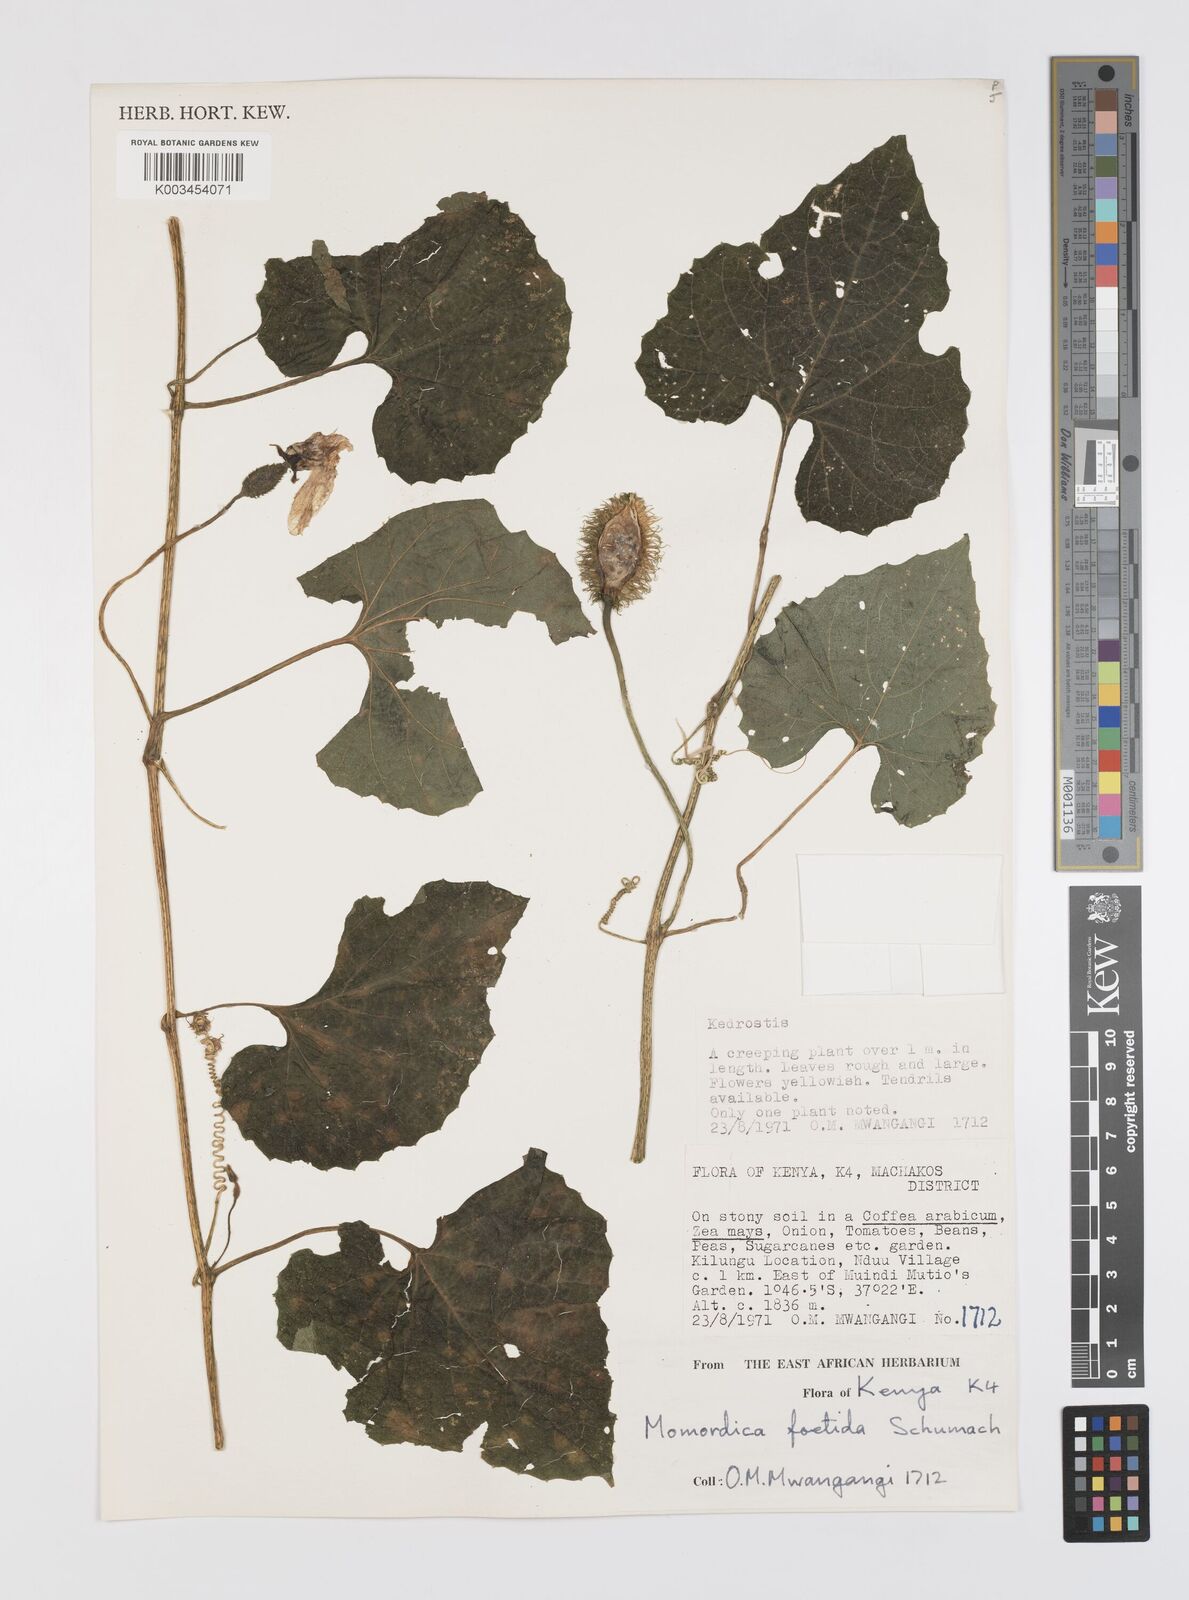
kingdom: Plantae
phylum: Tracheophyta
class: Magnoliopsida
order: Cucurbitales
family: Cucurbitaceae
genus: Momordica
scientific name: Momordica foetida
